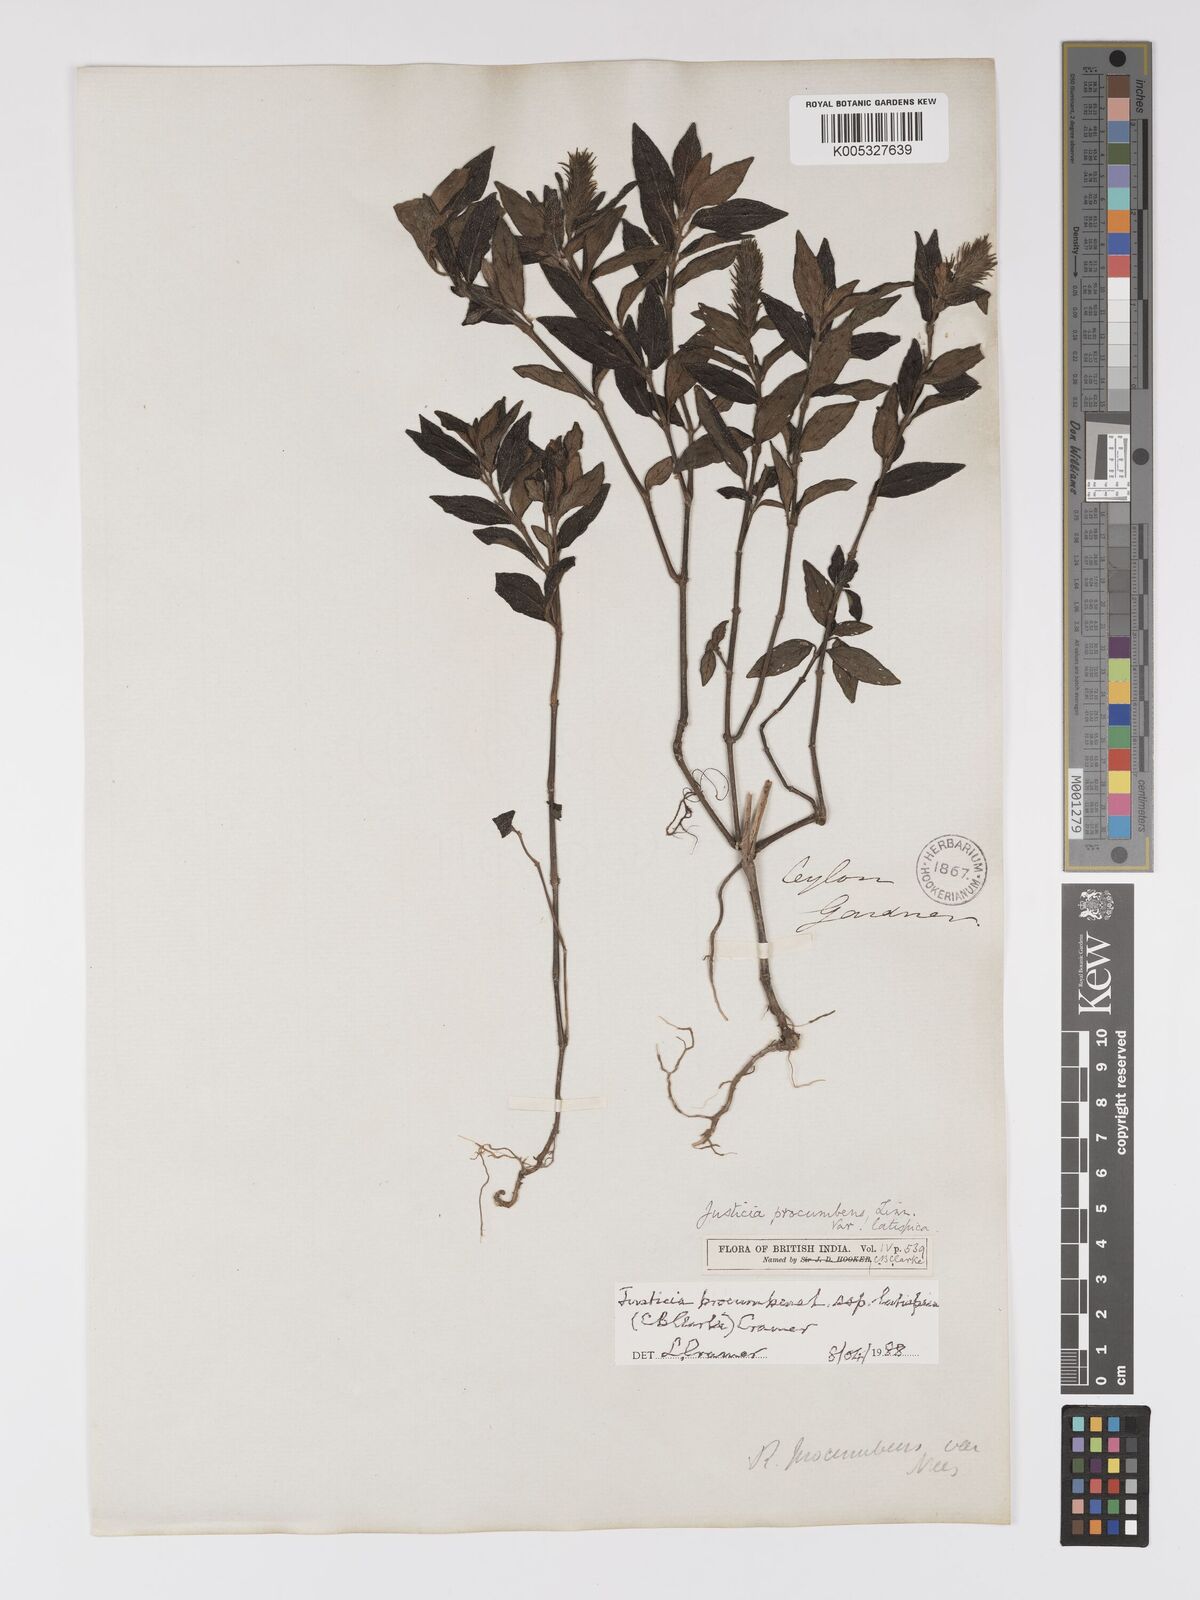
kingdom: Plantae
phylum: Tracheophyta
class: Magnoliopsida
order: Lamiales
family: Acanthaceae
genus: Rostellularia
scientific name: Rostellularia latispica
